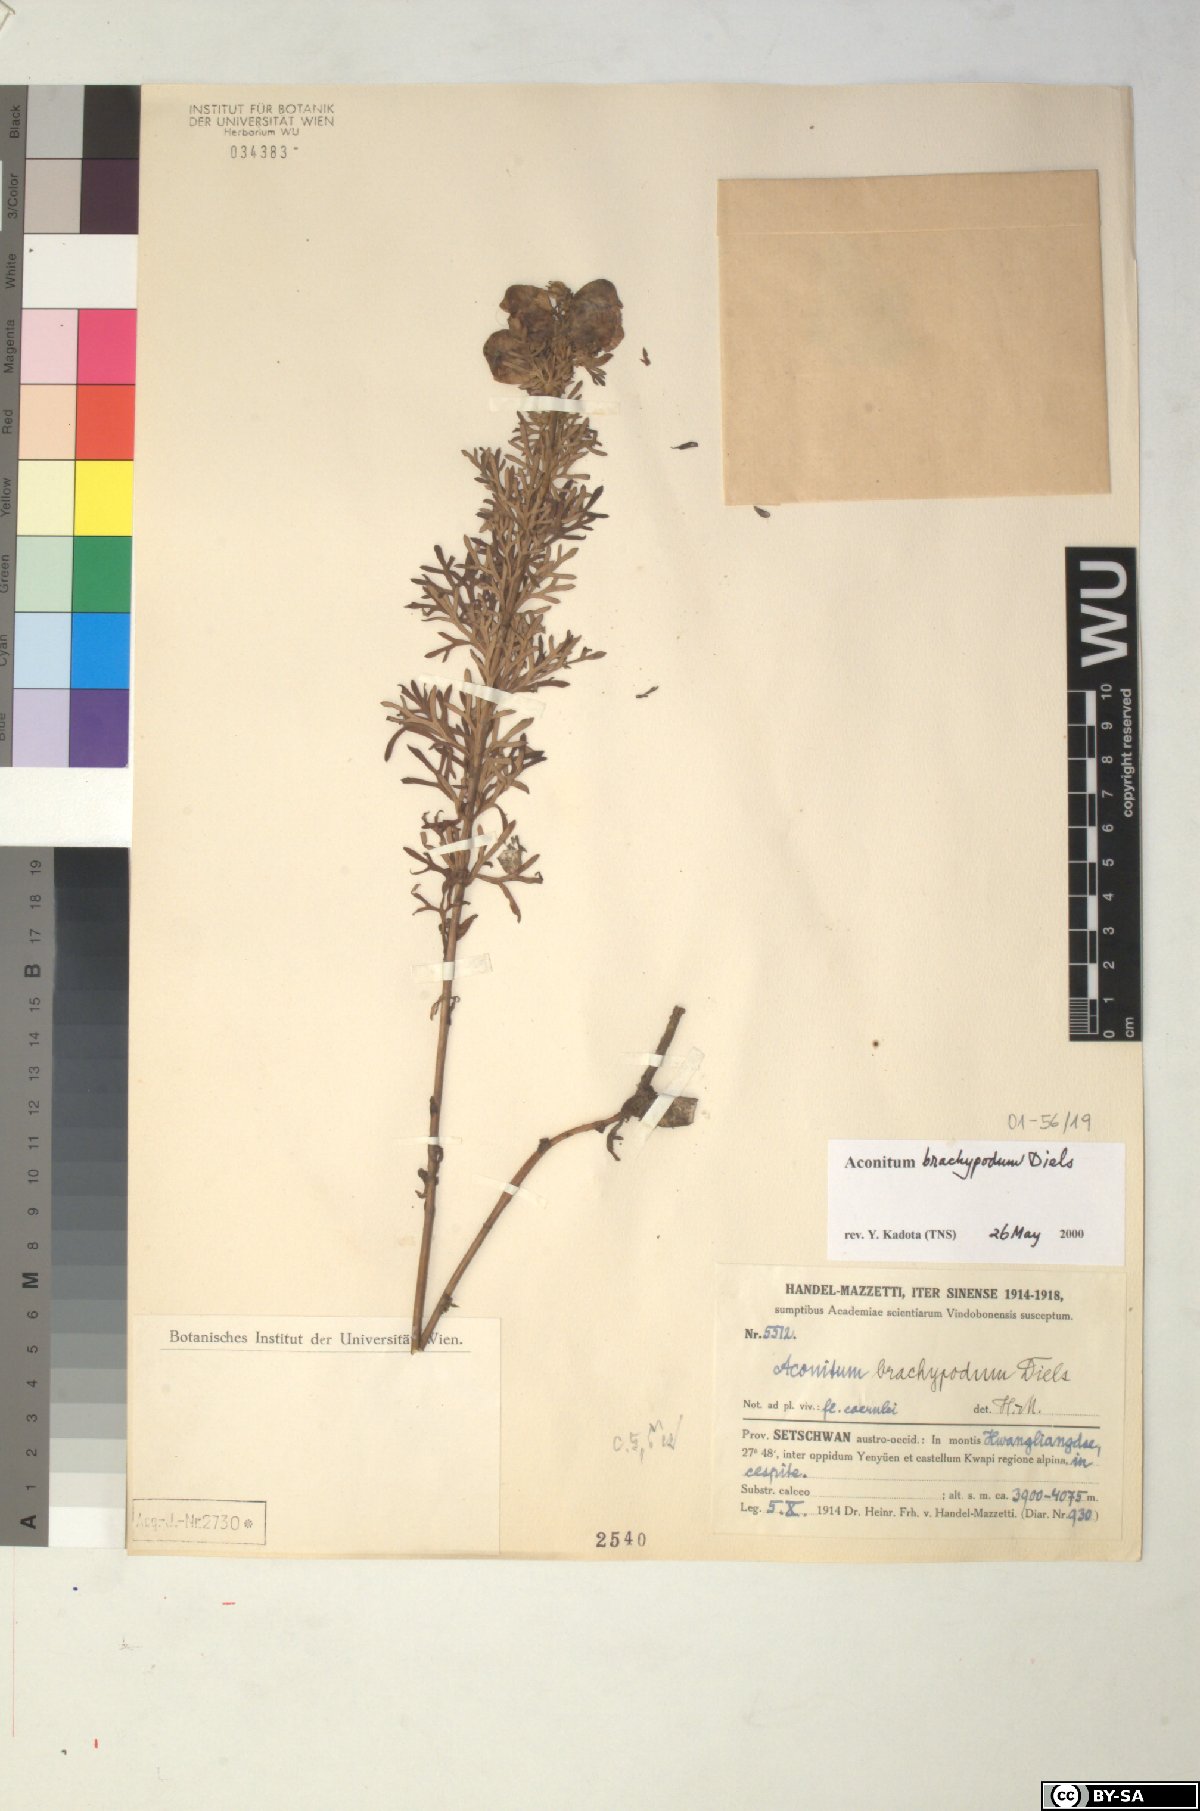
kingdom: Plantae
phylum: Tracheophyta
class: Magnoliopsida
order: Ranunculales
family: Ranunculaceae
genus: Aconitum
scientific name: Aconitum brachypodum
